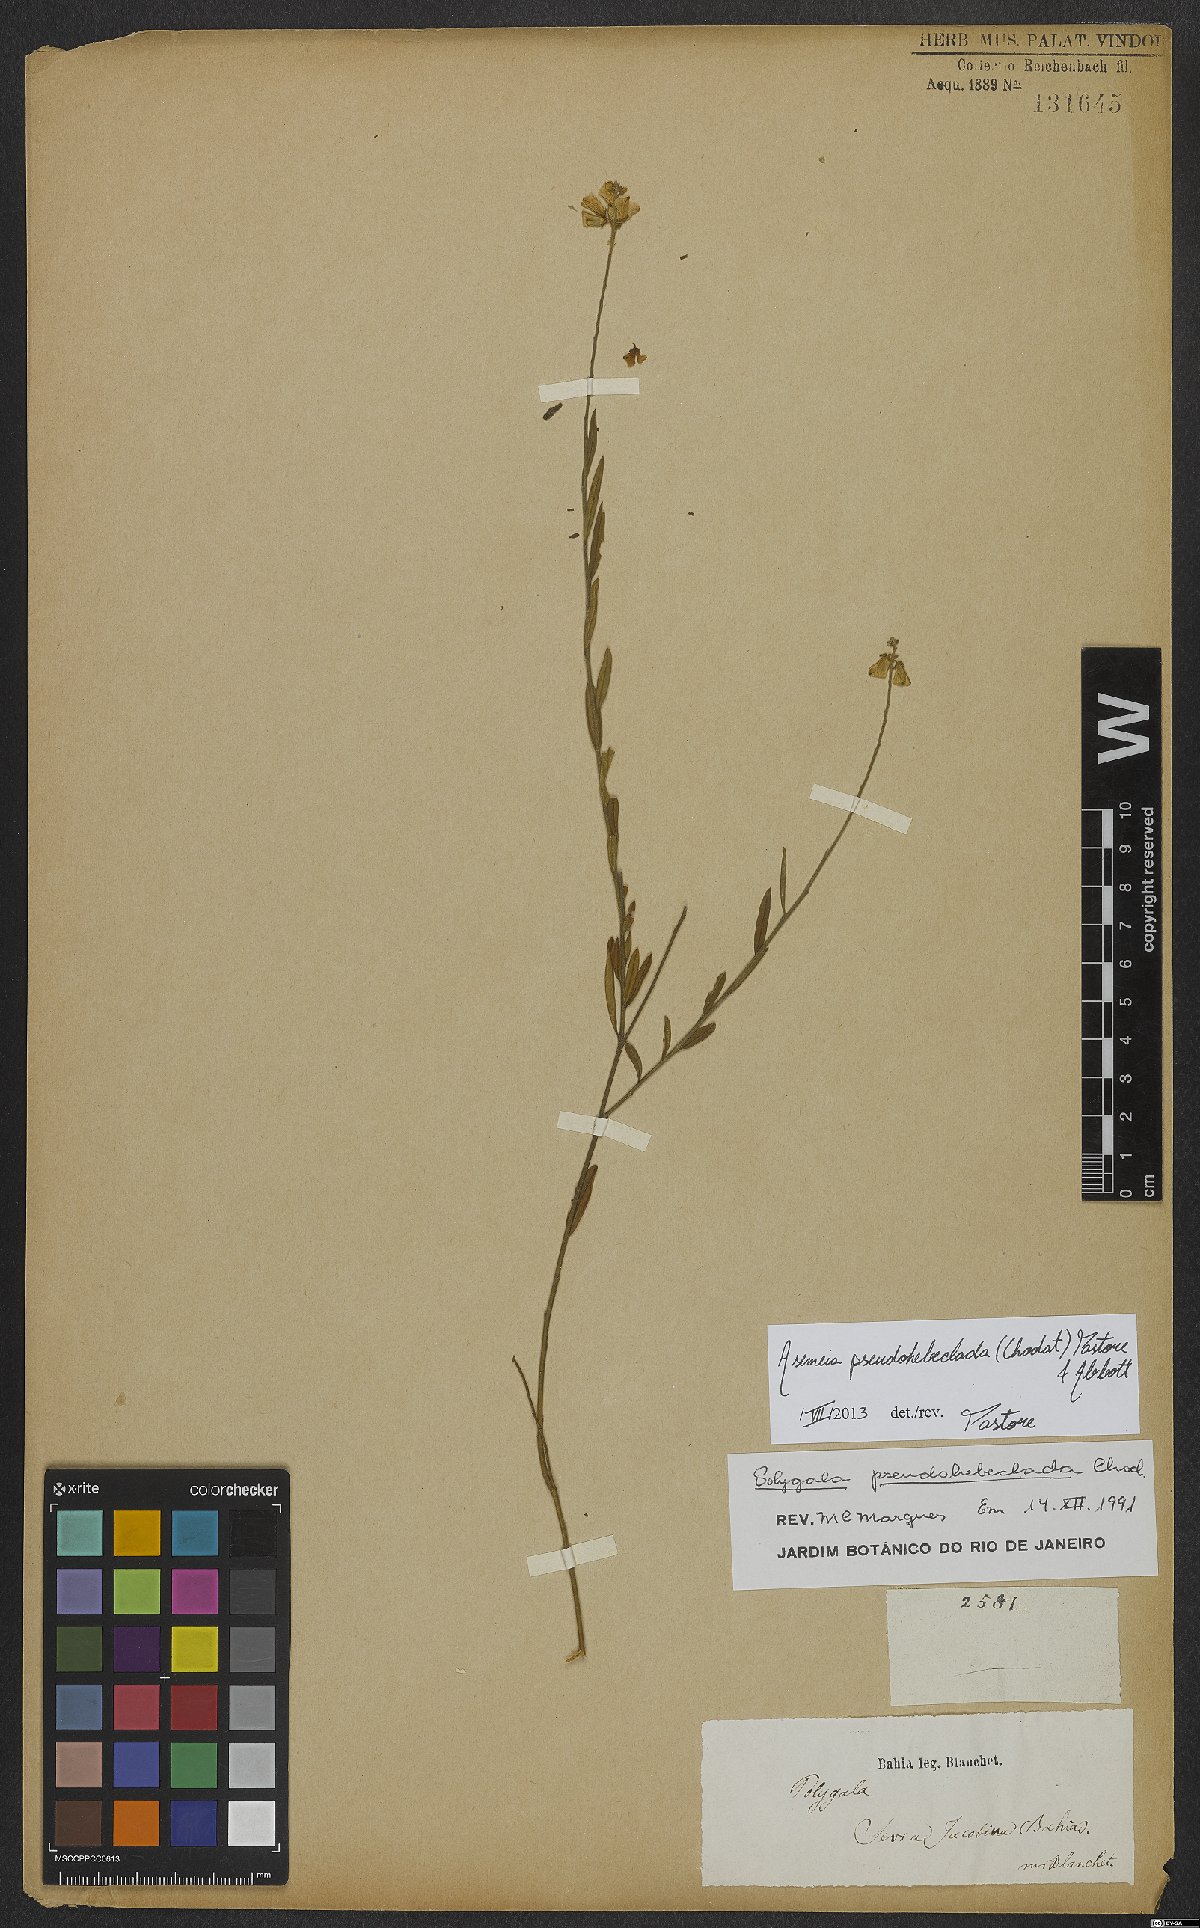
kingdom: Plantae
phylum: Tracheophyta
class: Magnoliopsida
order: Fabales
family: Polygalaceae
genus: Asemeia
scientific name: Asemeia pseudohebeclada
